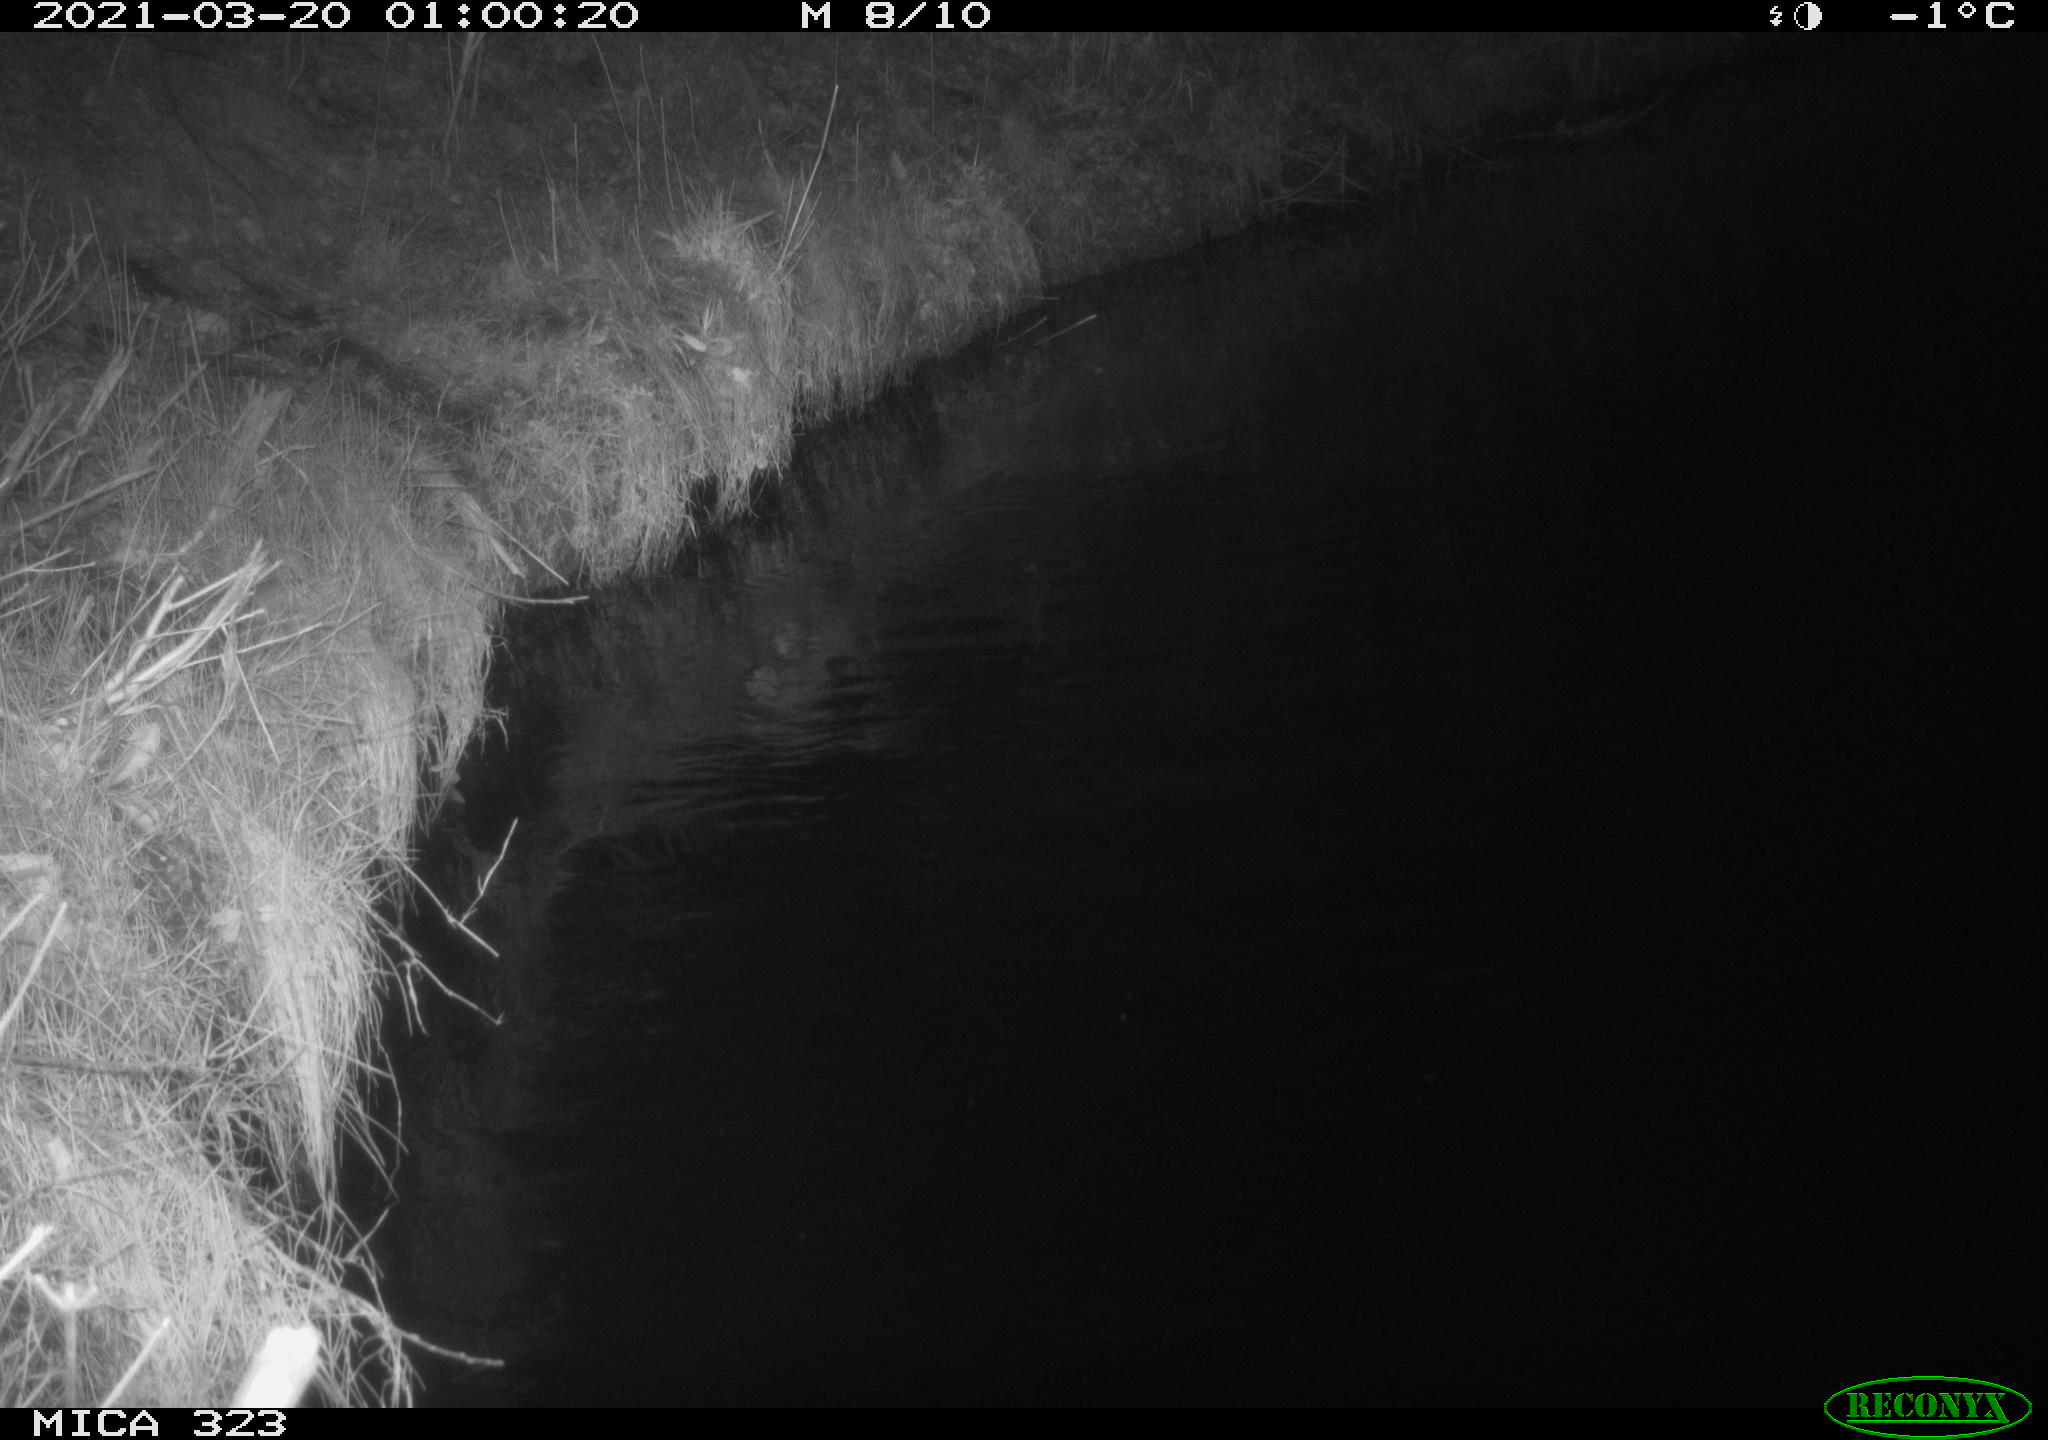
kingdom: Animalia
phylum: Chordata
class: Aves
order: Anseriformes
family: Anatidae
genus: Anas
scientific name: Anas platyrhynchos
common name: Mallard
